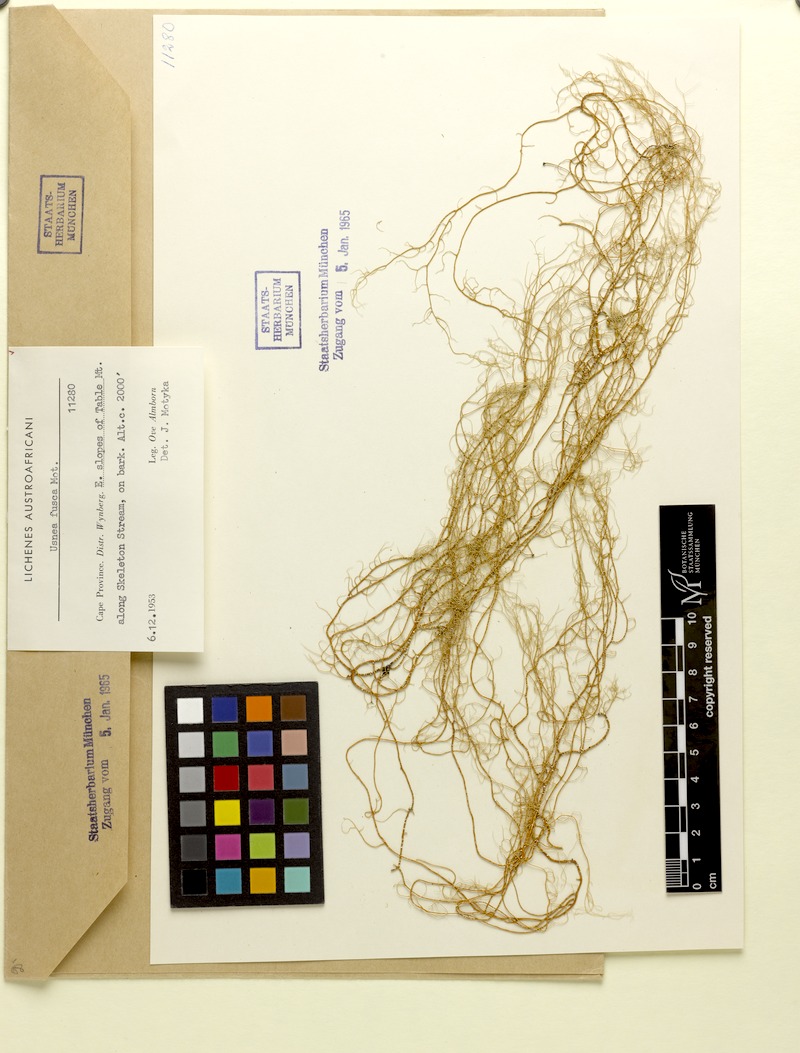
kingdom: Fungi
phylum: Ascomycota
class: Lecanoromycetes
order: Lecanorales
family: Parmeliaceae
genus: Usnea
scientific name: Usnea fusca
